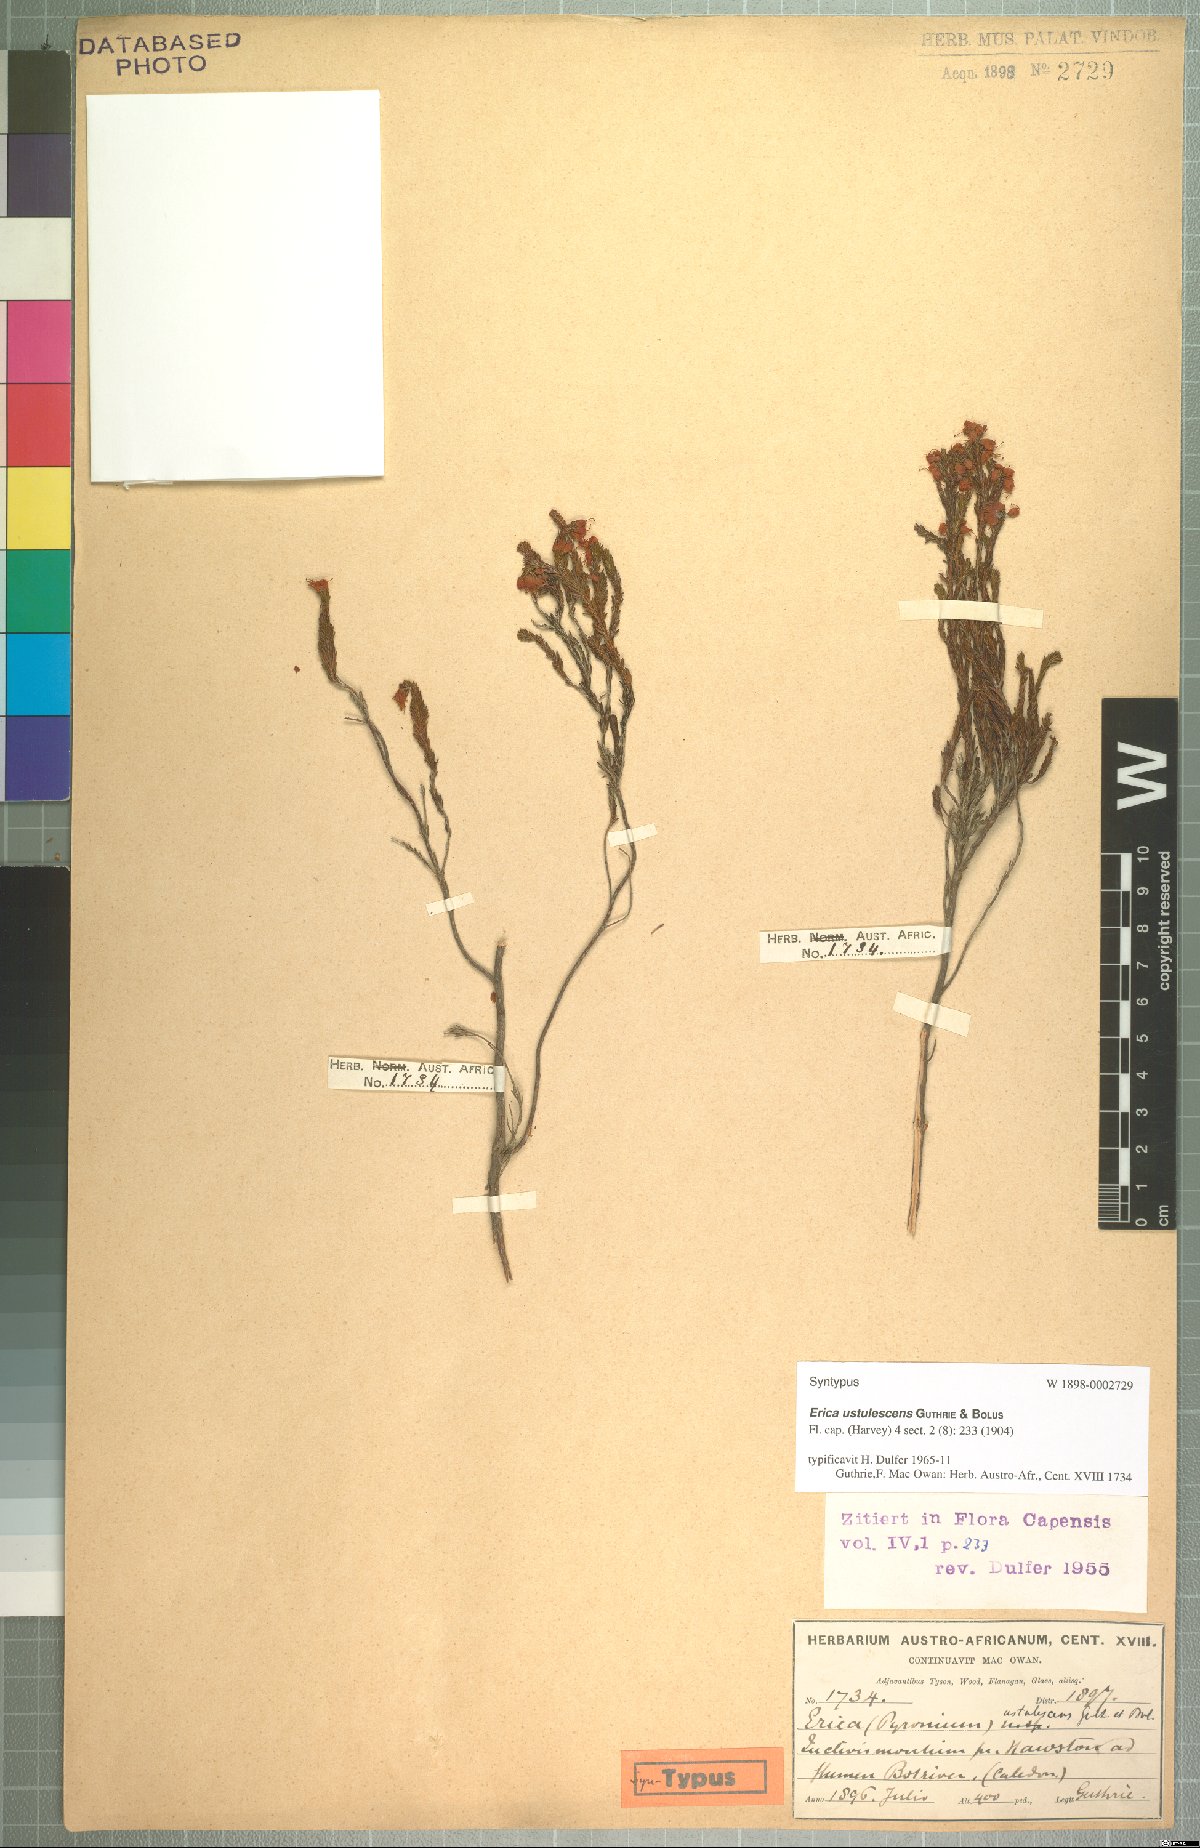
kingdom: Plantae
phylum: Tracheophyta
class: Magnoliopsida
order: Ericales
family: Ericaceae
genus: Erica
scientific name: Erica ustulescens
